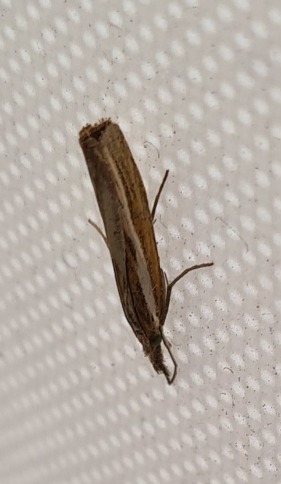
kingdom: Animalia
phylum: Arthropoda
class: Insecta
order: Lepidoptera
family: Crambidae
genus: Agriphila
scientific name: Agriphila tristellus
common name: Okkergult græsmøl
